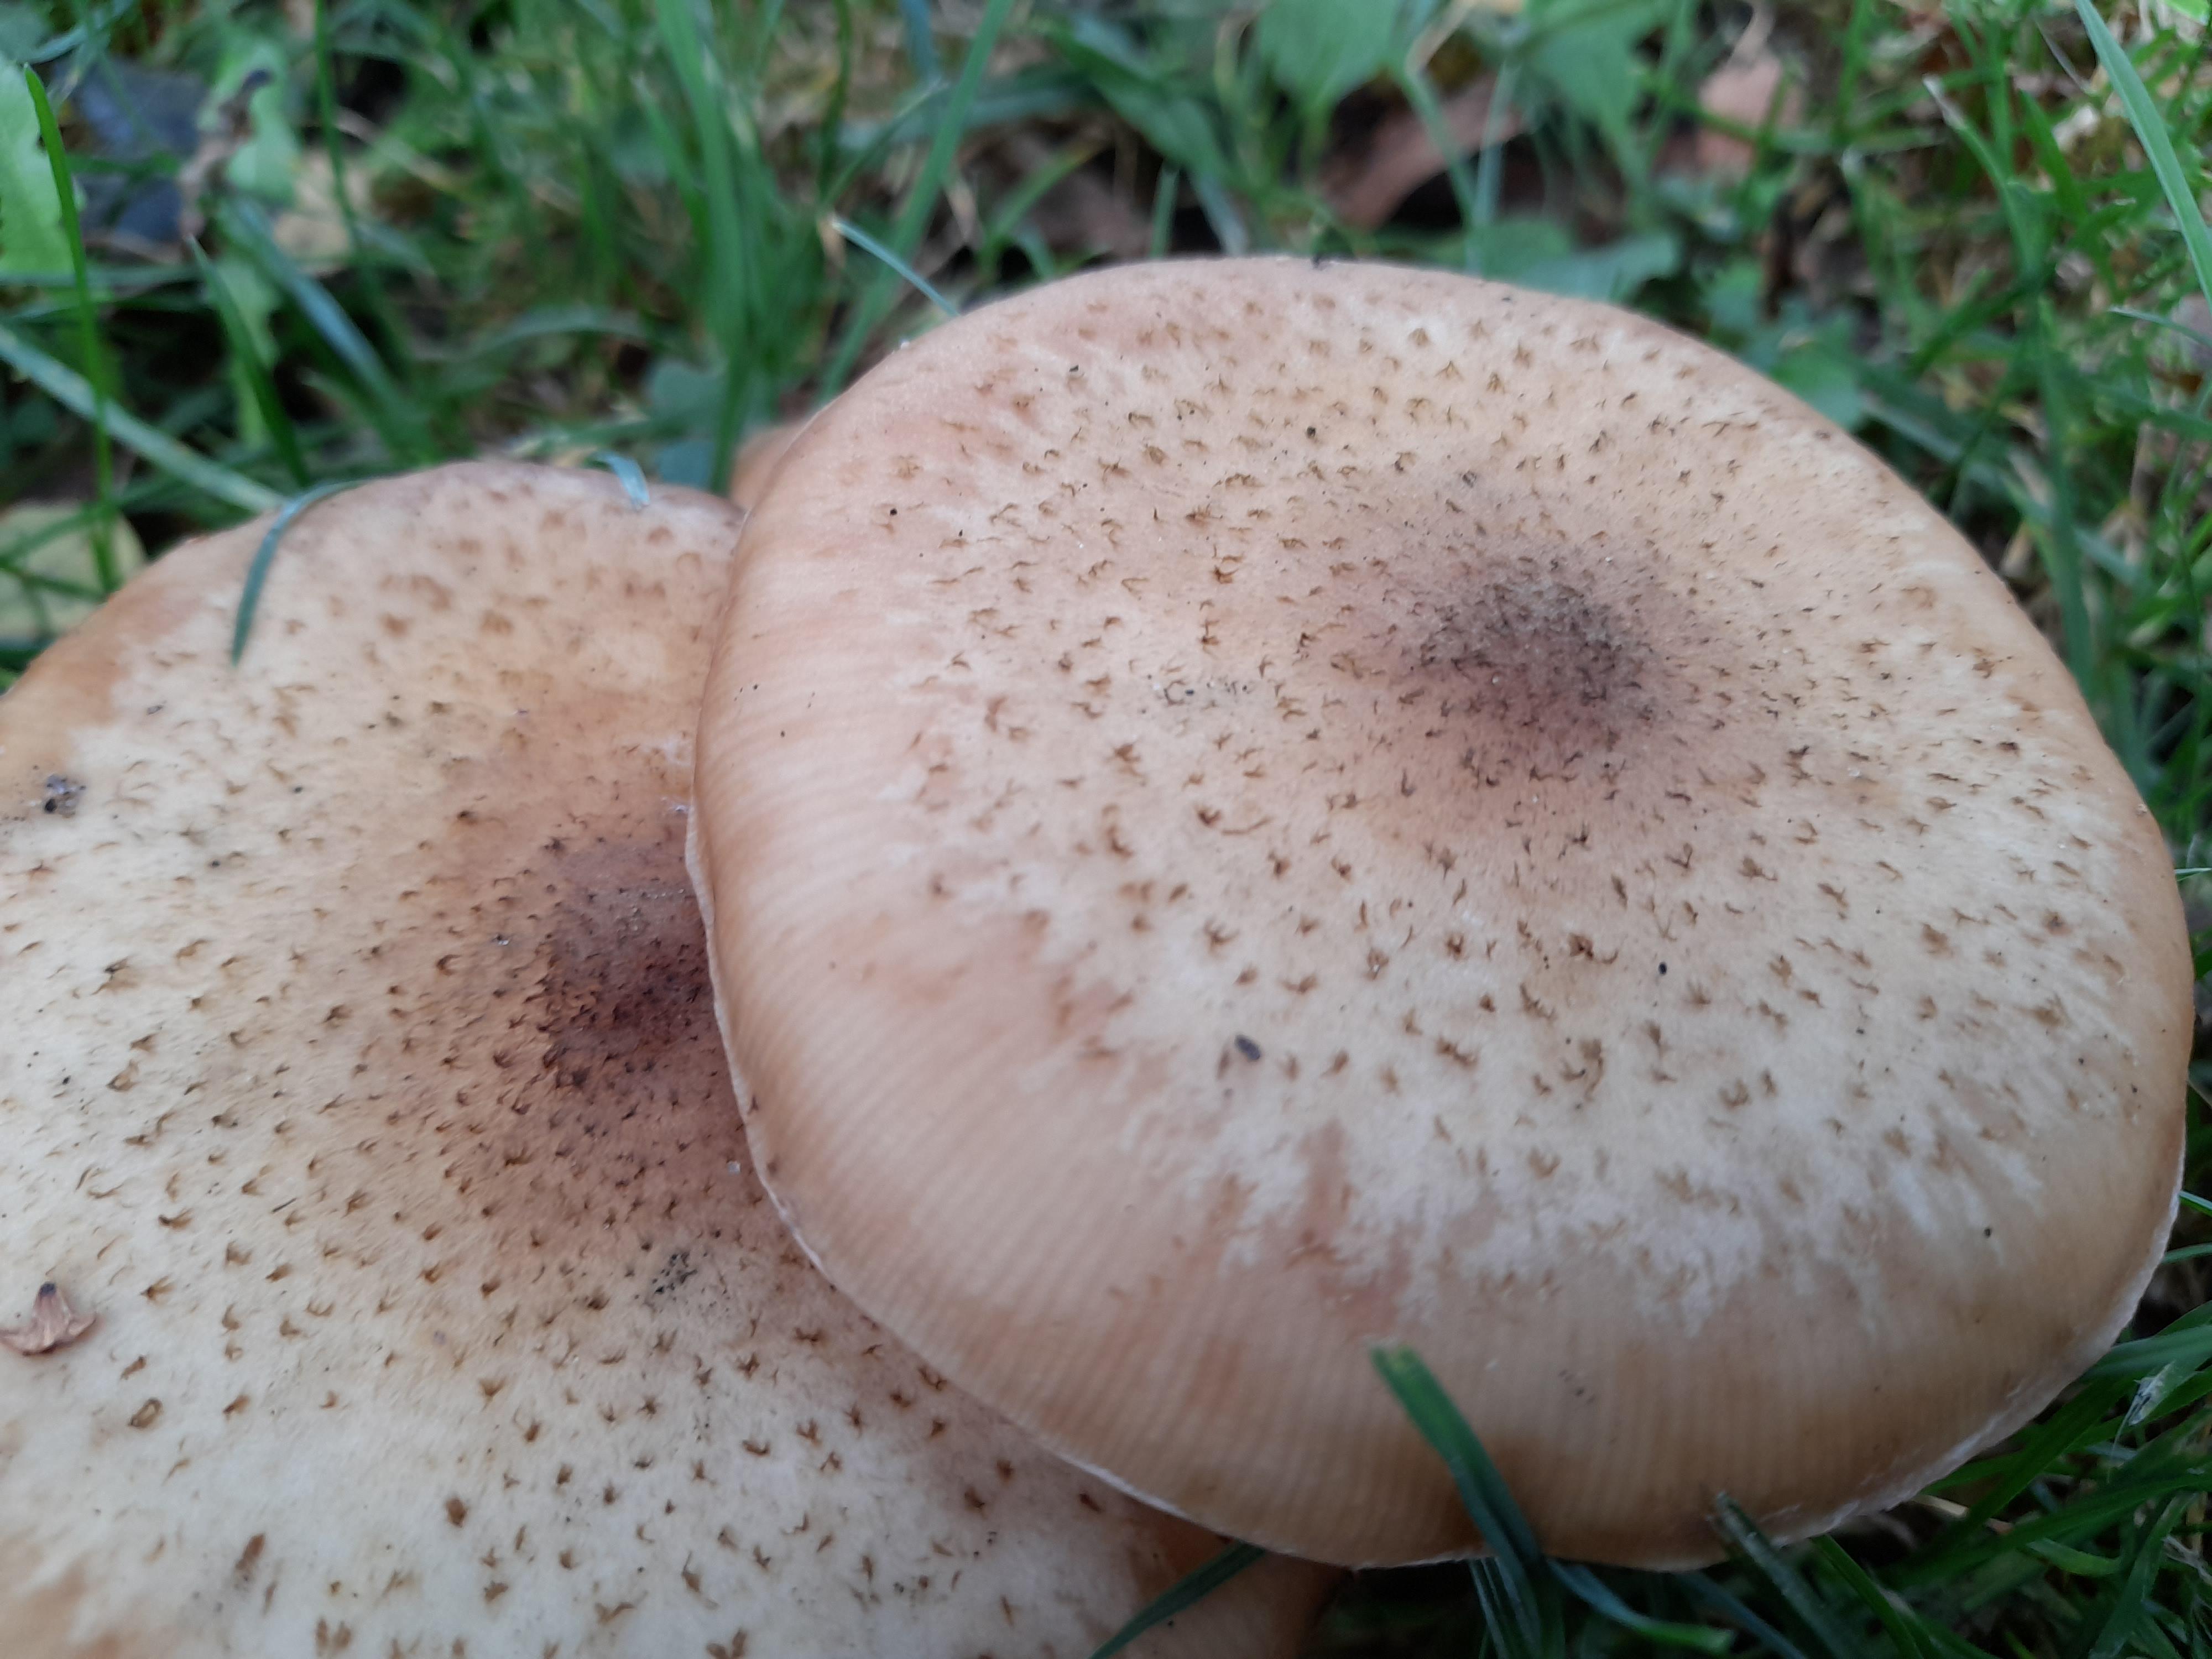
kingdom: Fungi
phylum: Basidiomycota
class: Agaricomycetes
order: Agaricales
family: Physalacriaceae
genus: Armillaria
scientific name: Armillaria lutea
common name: køllestokket honningsvamp
